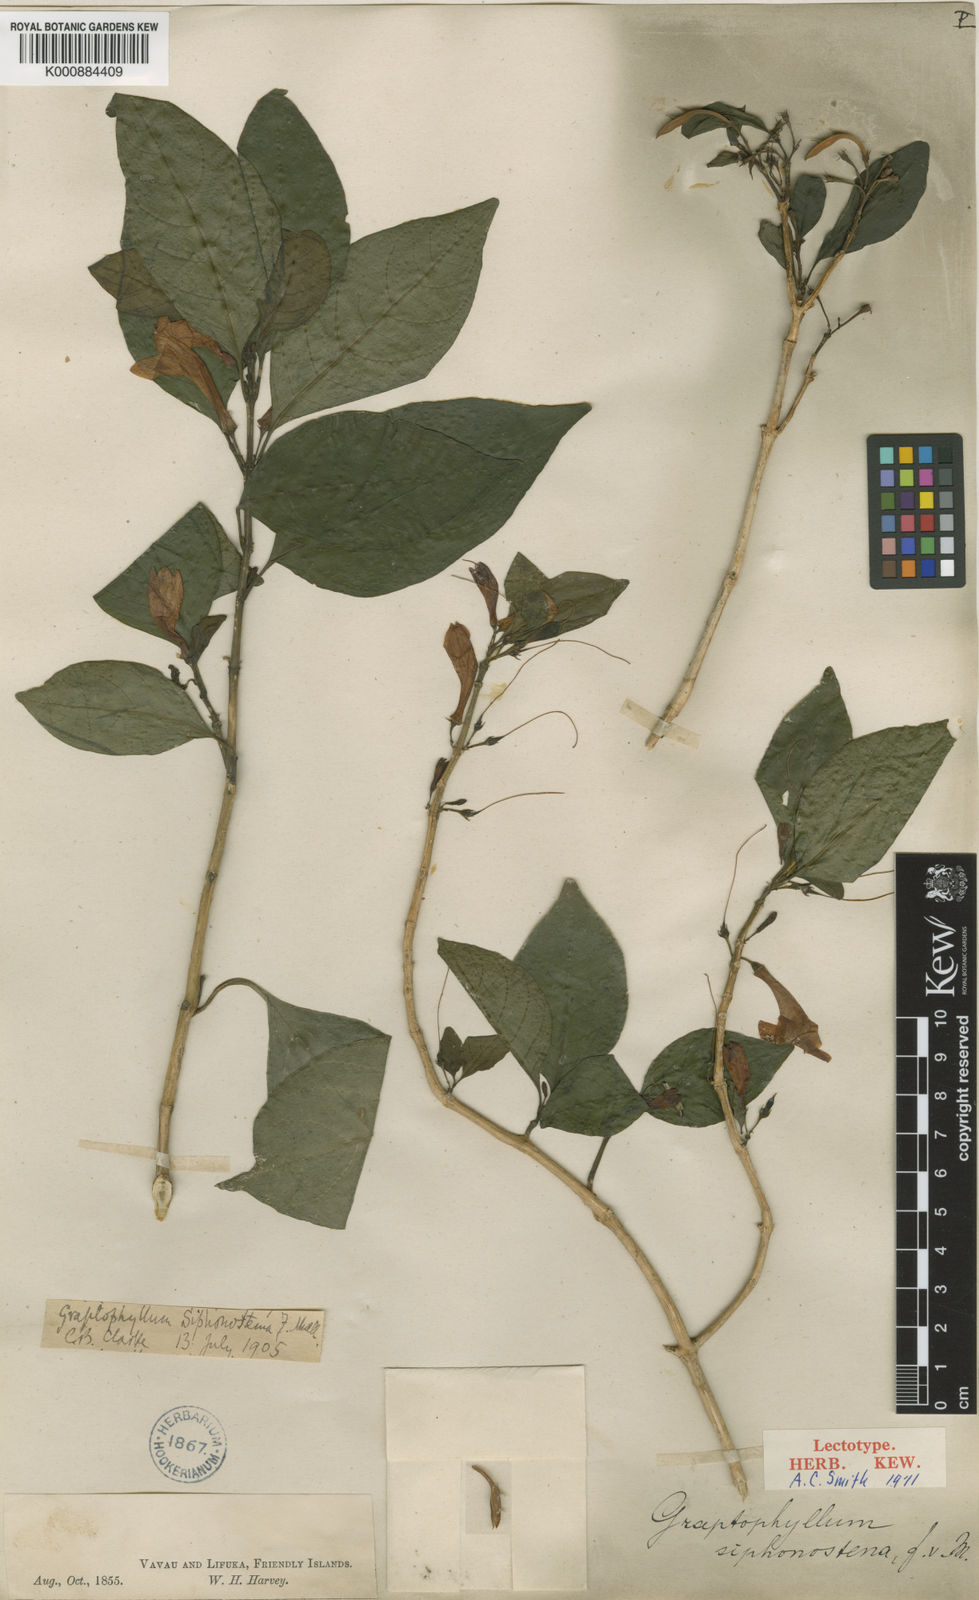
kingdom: Plantae
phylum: Tracheophyta
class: Magnoliopsida
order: Lamiales
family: Acanthaceae
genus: Graptophyllum
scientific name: Graptophyllum
